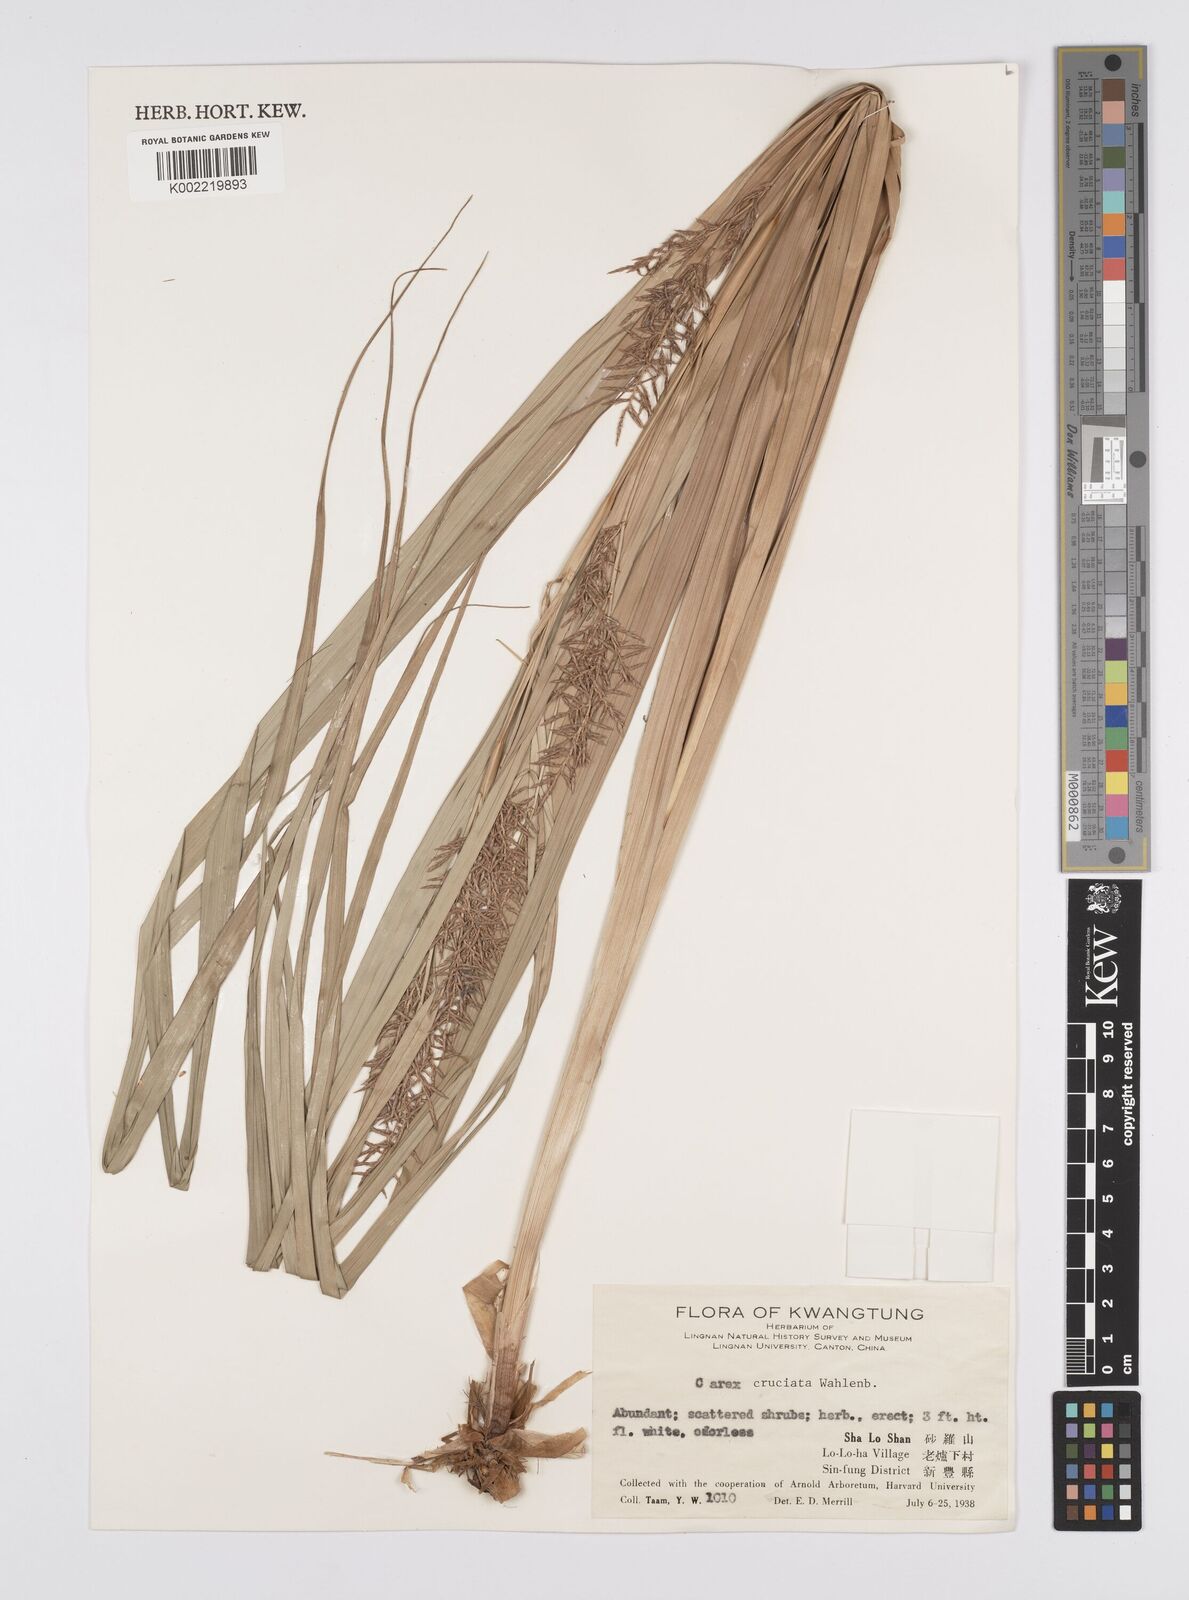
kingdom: Plantae
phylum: Tracheophyta
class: Liliopsida
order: Poales
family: Cyperaceae
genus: Carex
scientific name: Carex cruciata
